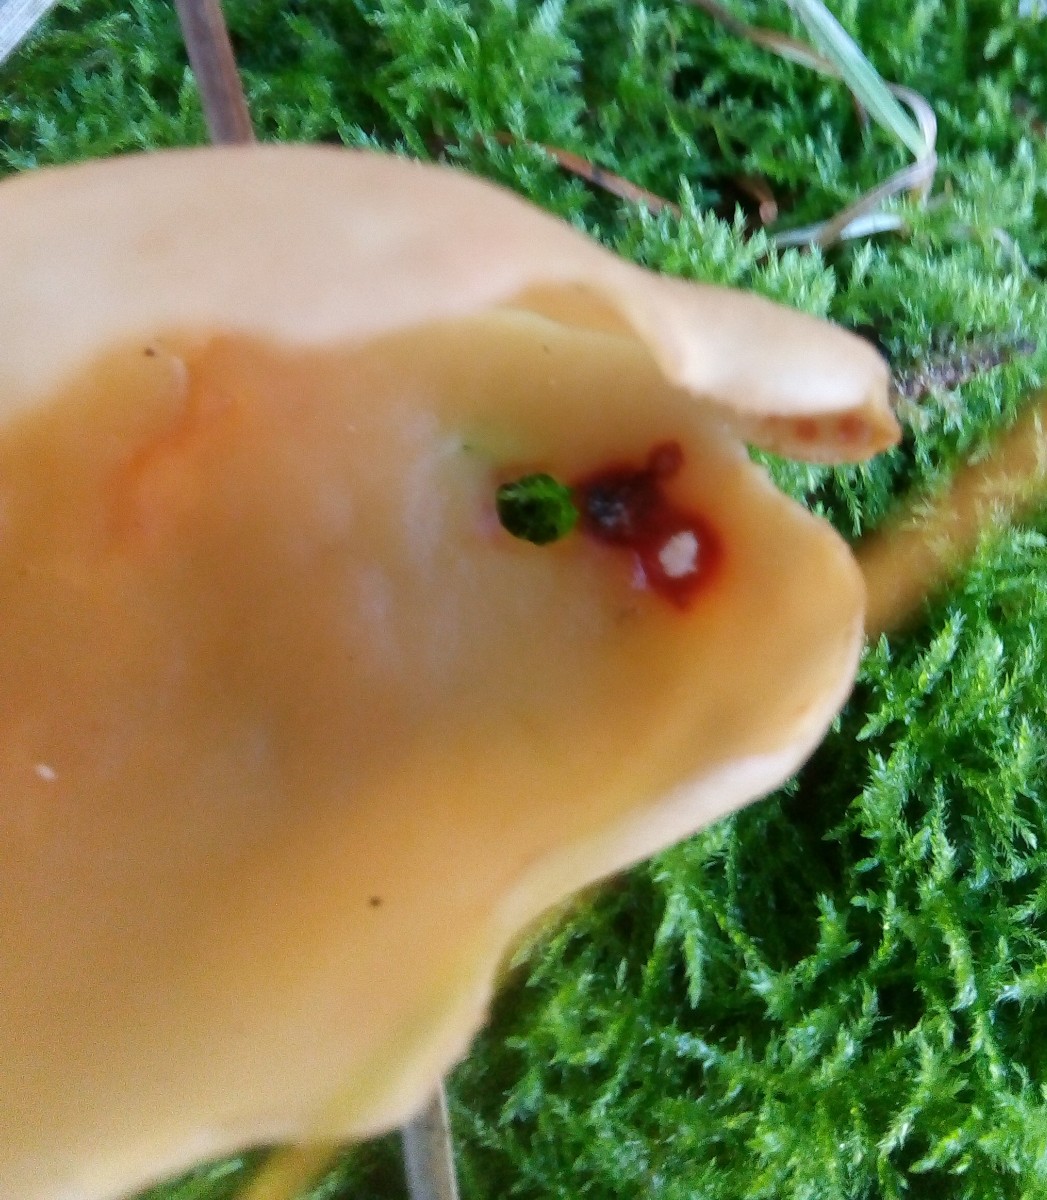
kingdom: Fungi
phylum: Ascomycota
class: Pezizomycetes
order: Pezizales
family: Otideaceae
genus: Otidea
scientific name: Otidea onotica
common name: æsel-ørebæger
